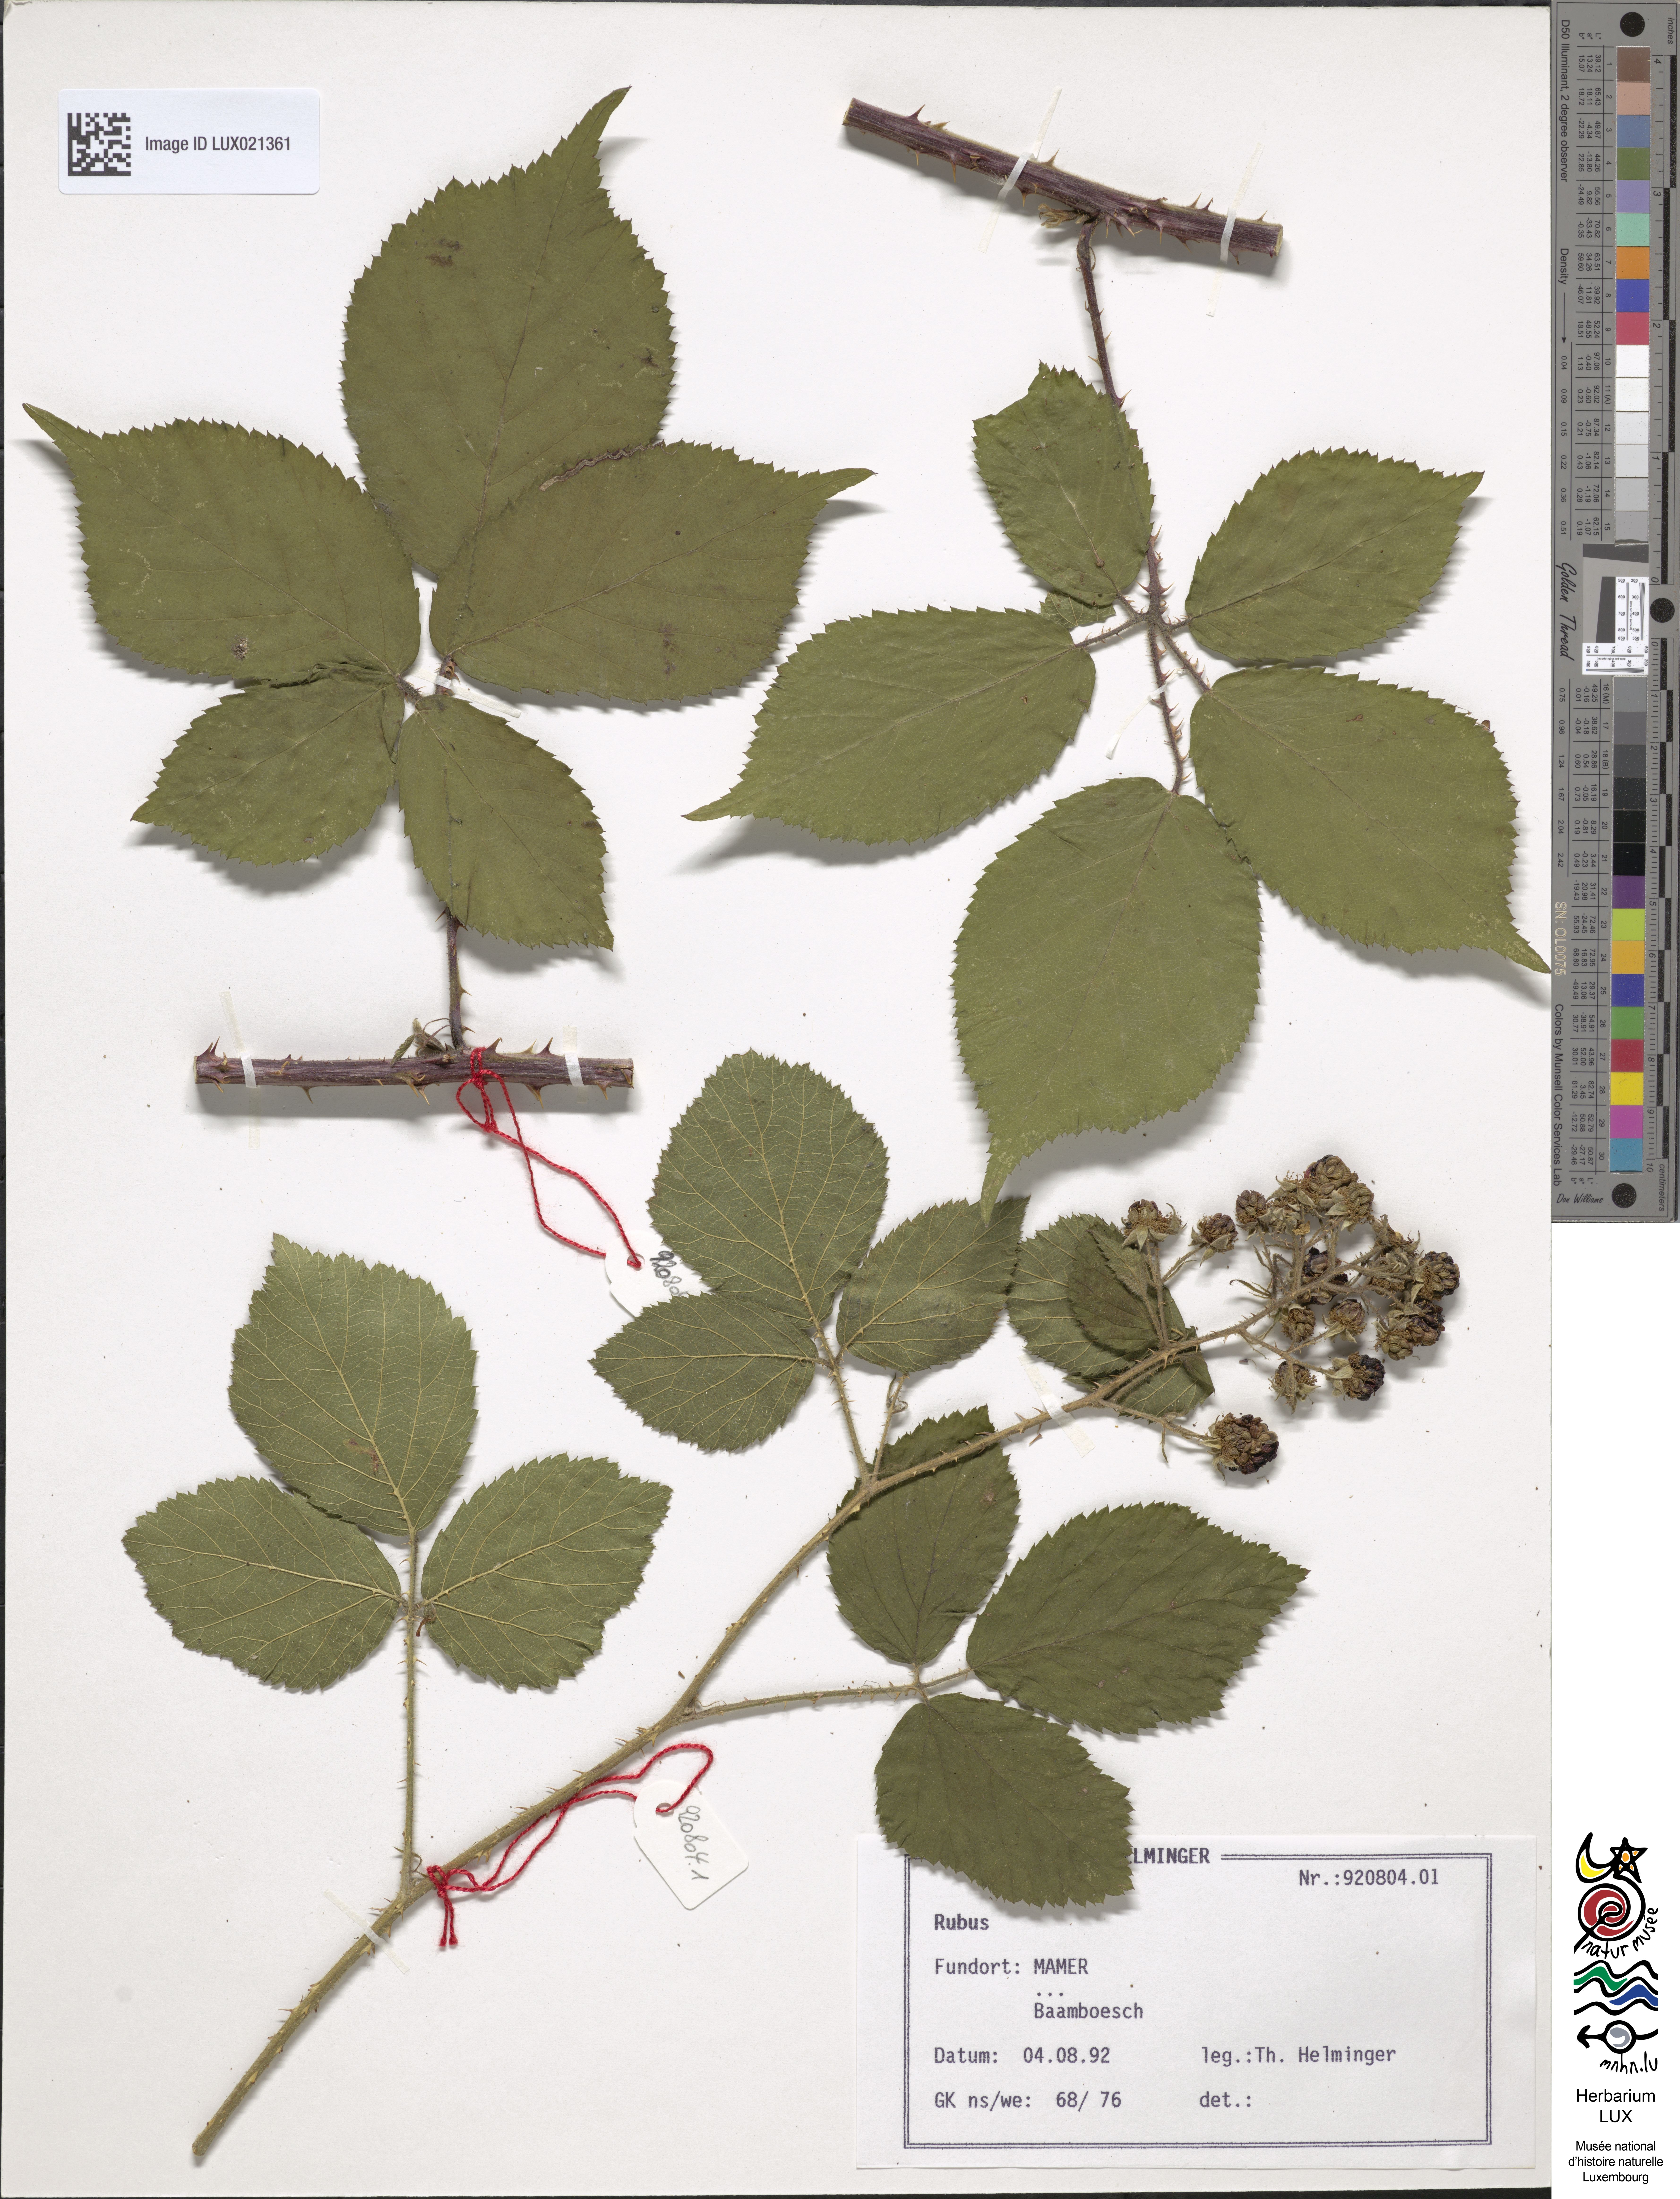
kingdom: Plantae
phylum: Tracheophyta
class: Magnoliopsida
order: Rosales
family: Rosaceae
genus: Rubus
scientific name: Rubus
